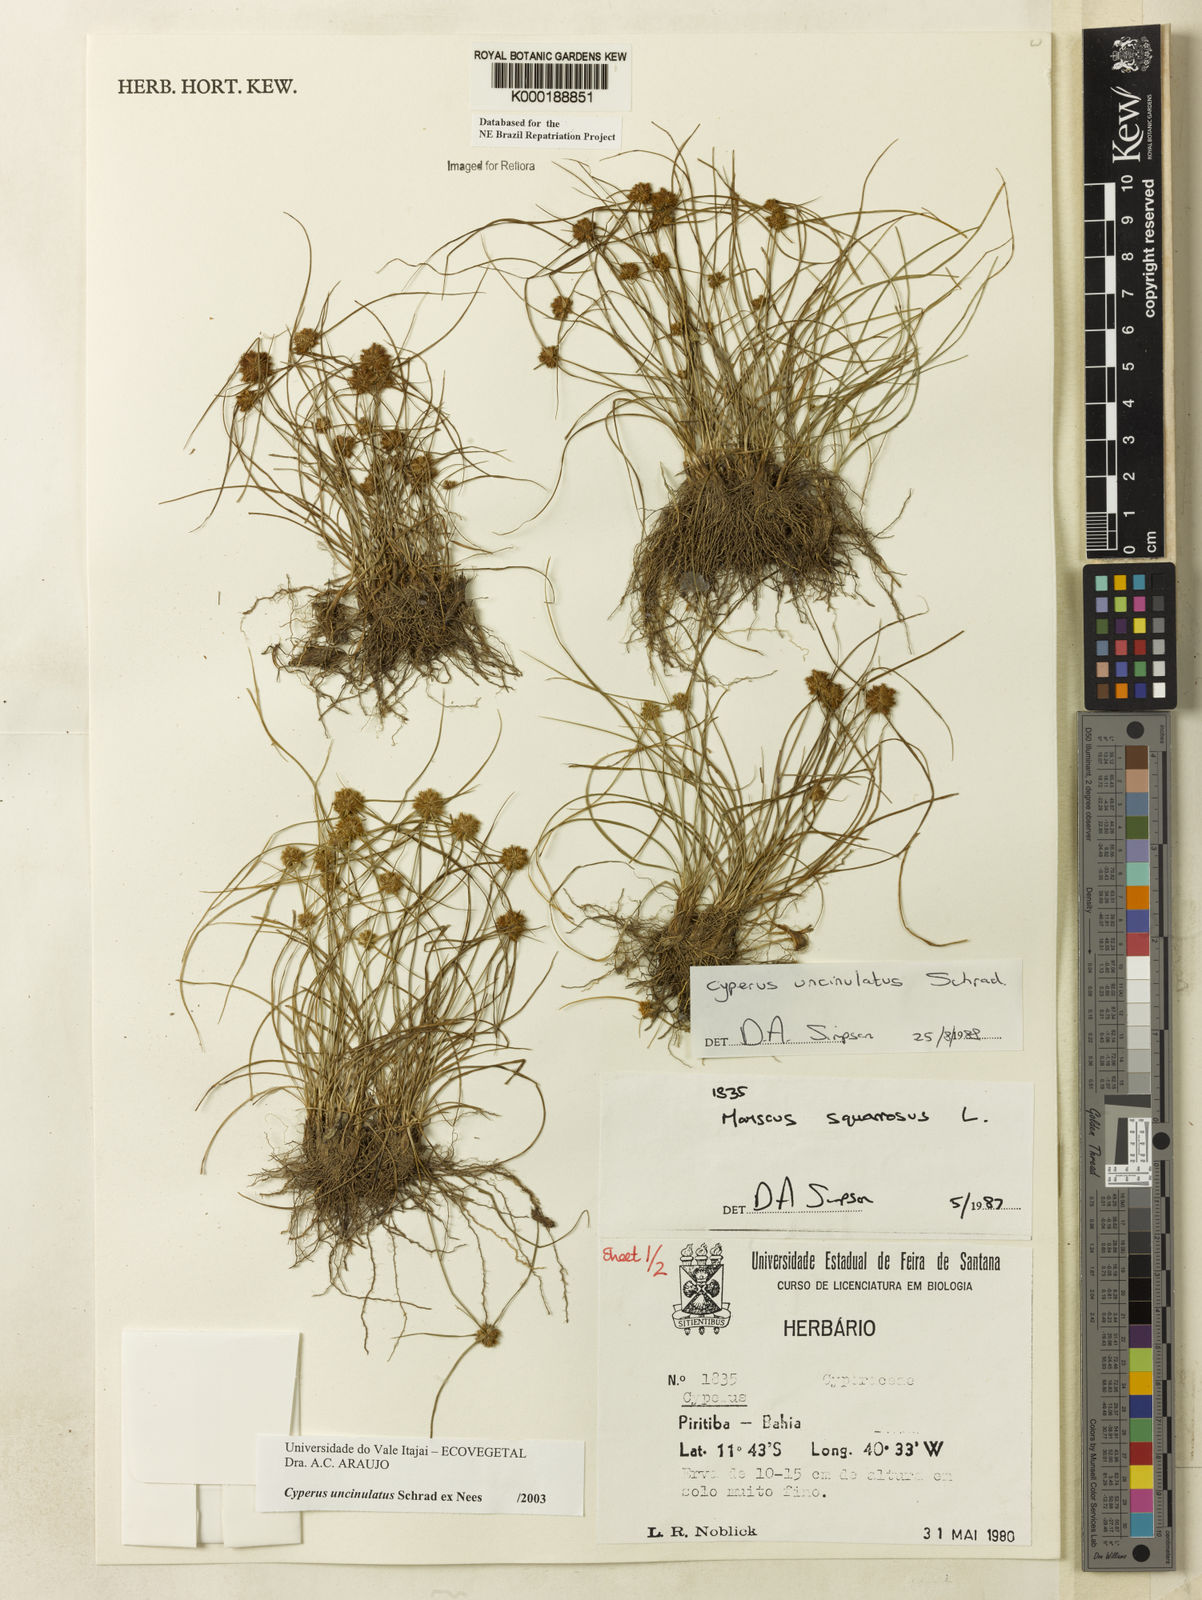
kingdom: Plantae
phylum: Tracheophyta
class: Liliopsida
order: Poales
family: Cyperaceae
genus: Cyperus
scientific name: Cyperus uncinulatus
